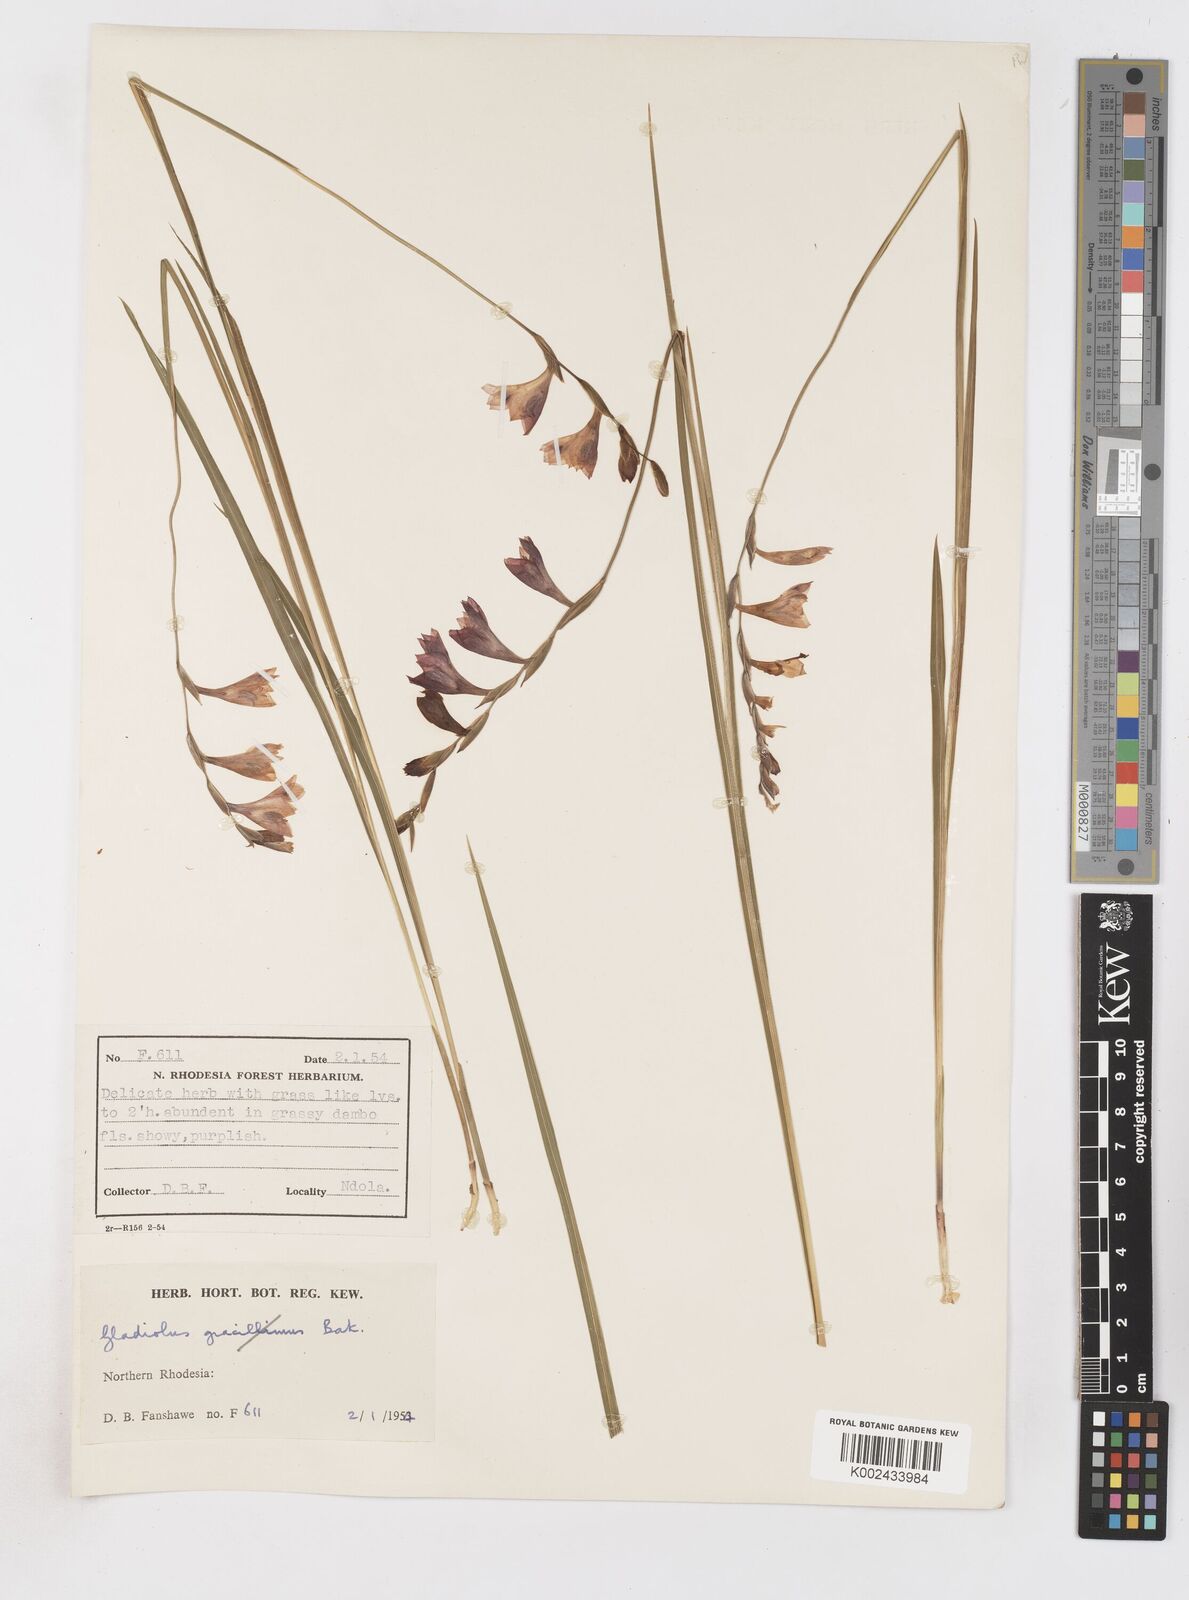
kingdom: Plantae
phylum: Tracheophyta
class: Liliopsida
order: Asparagales
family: Iridaceae
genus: Gladiolus
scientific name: Gladiolus atropurpureus
